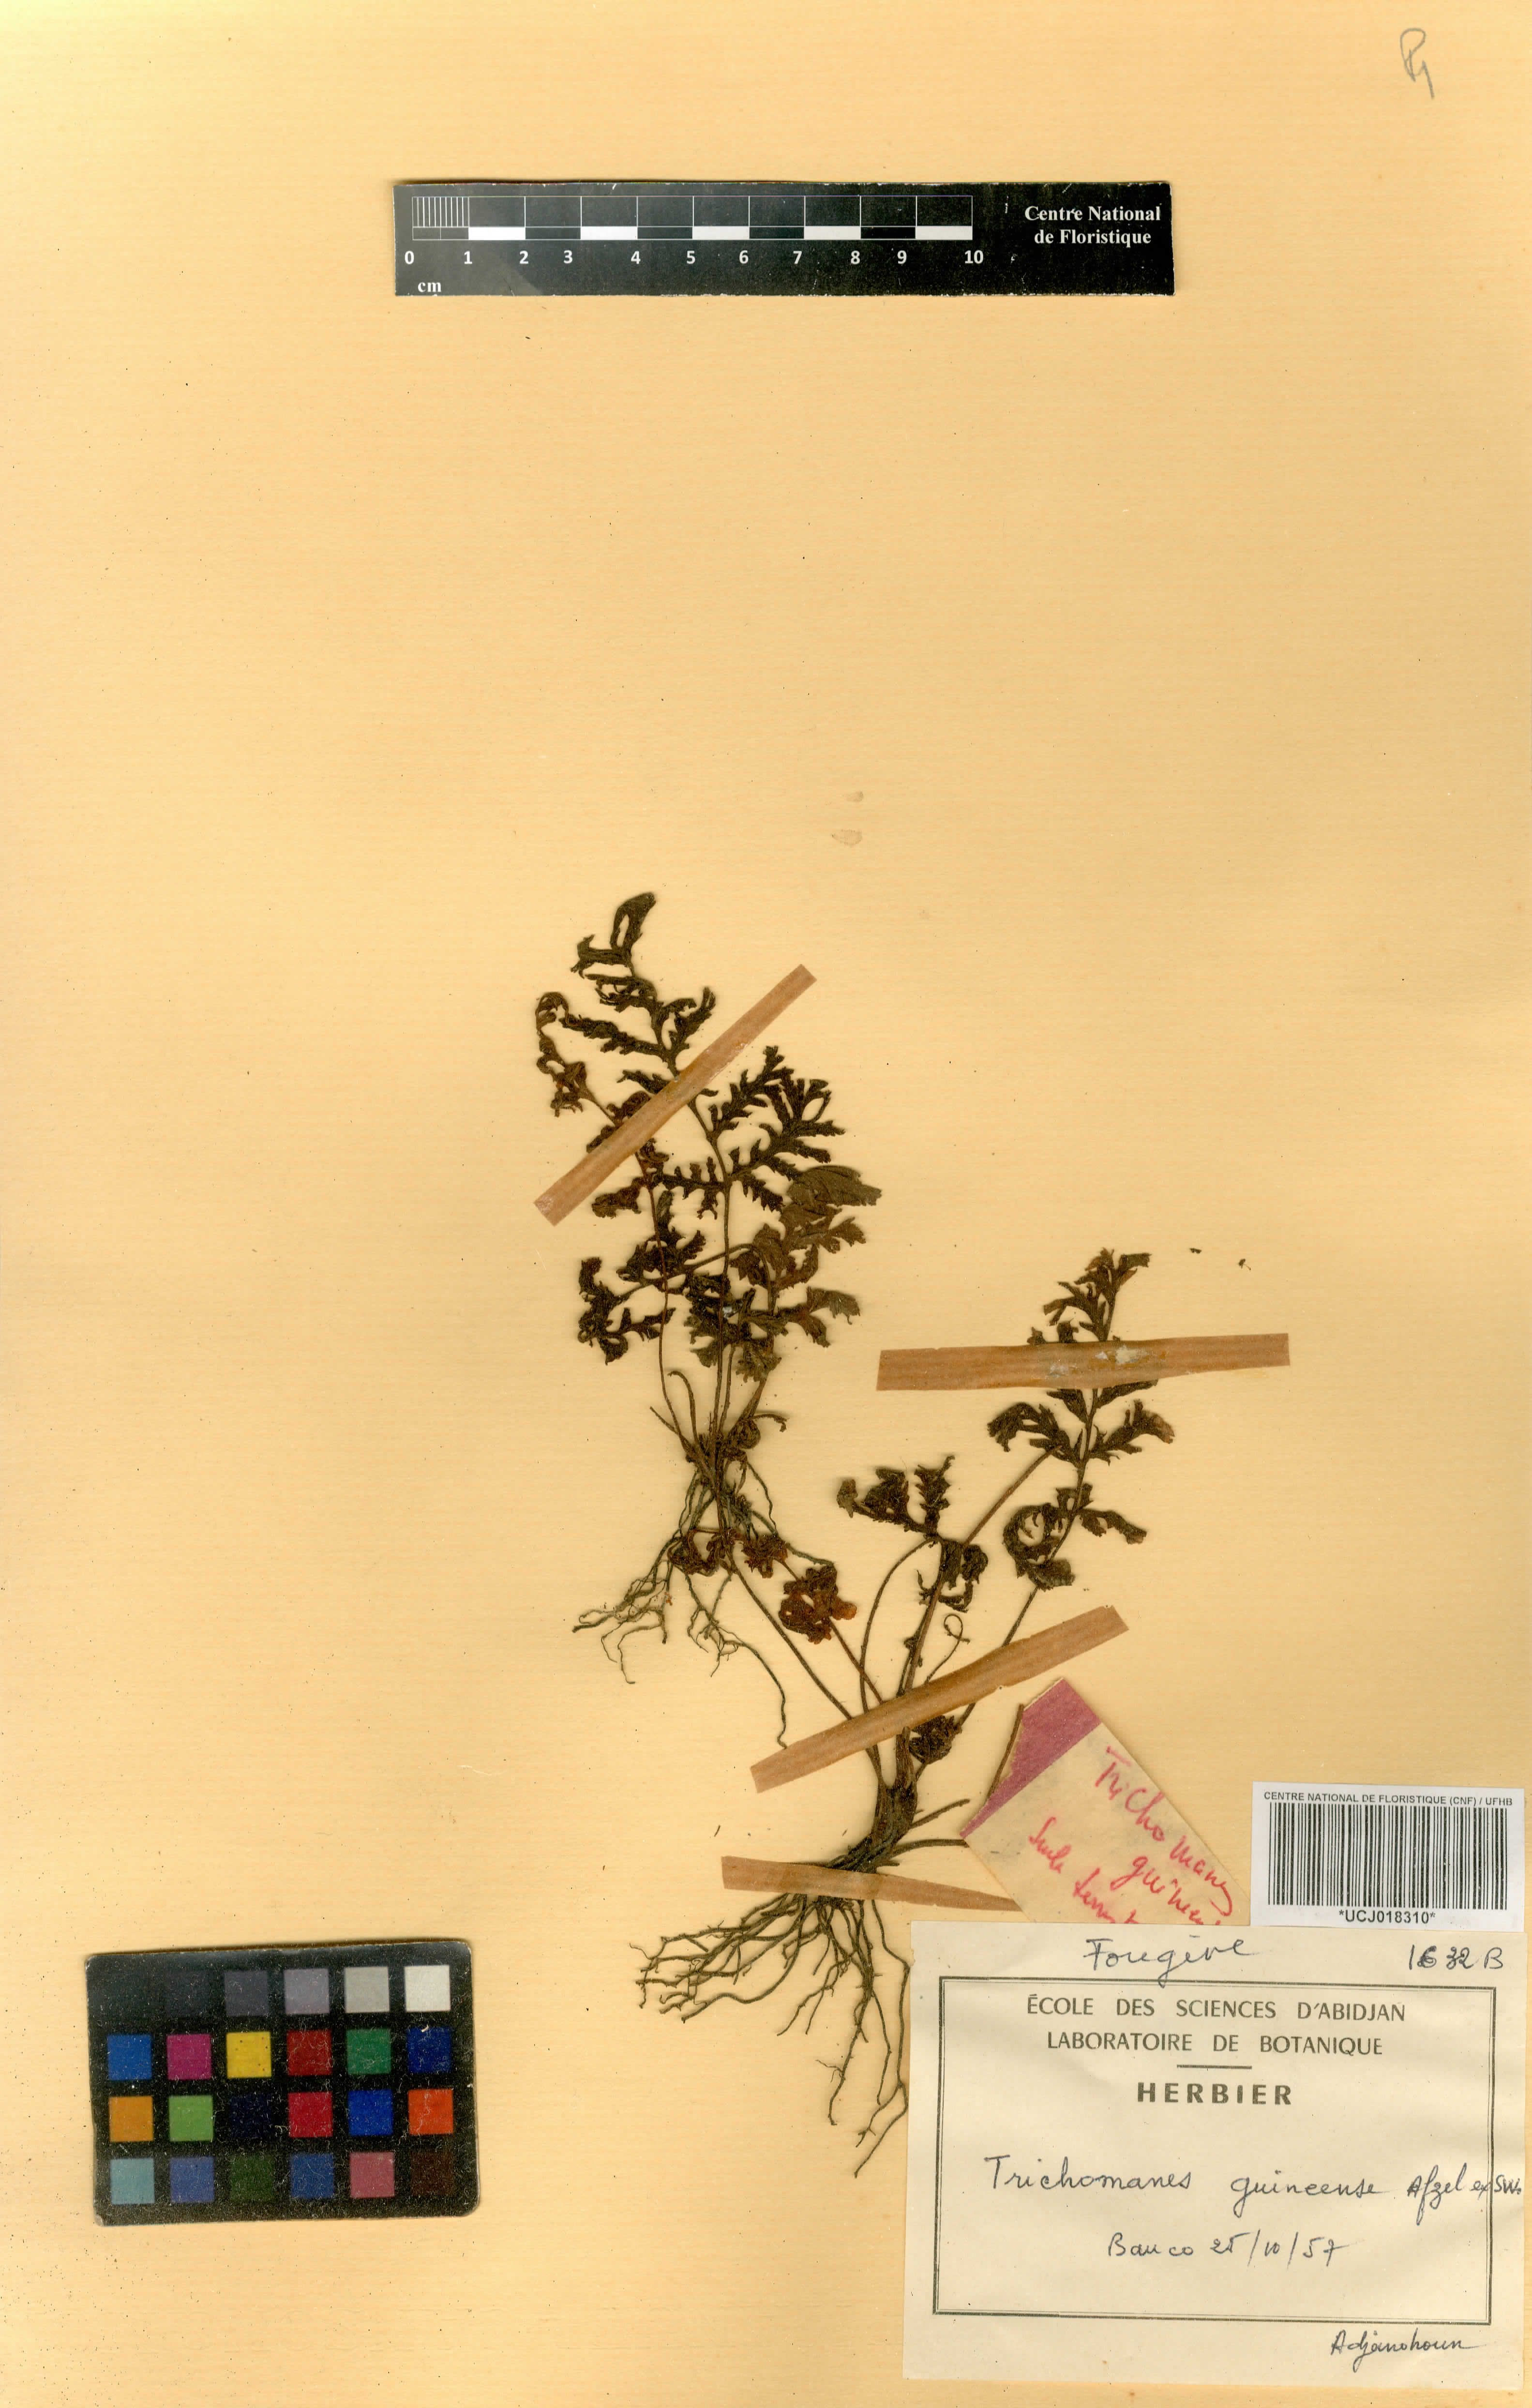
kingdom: Plantae
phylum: Tracheophyta
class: Polypodiopsida
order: Hymenophyllales
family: Hymenophyllaceae
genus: Abrodictyum
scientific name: Abrodictyum guineense
